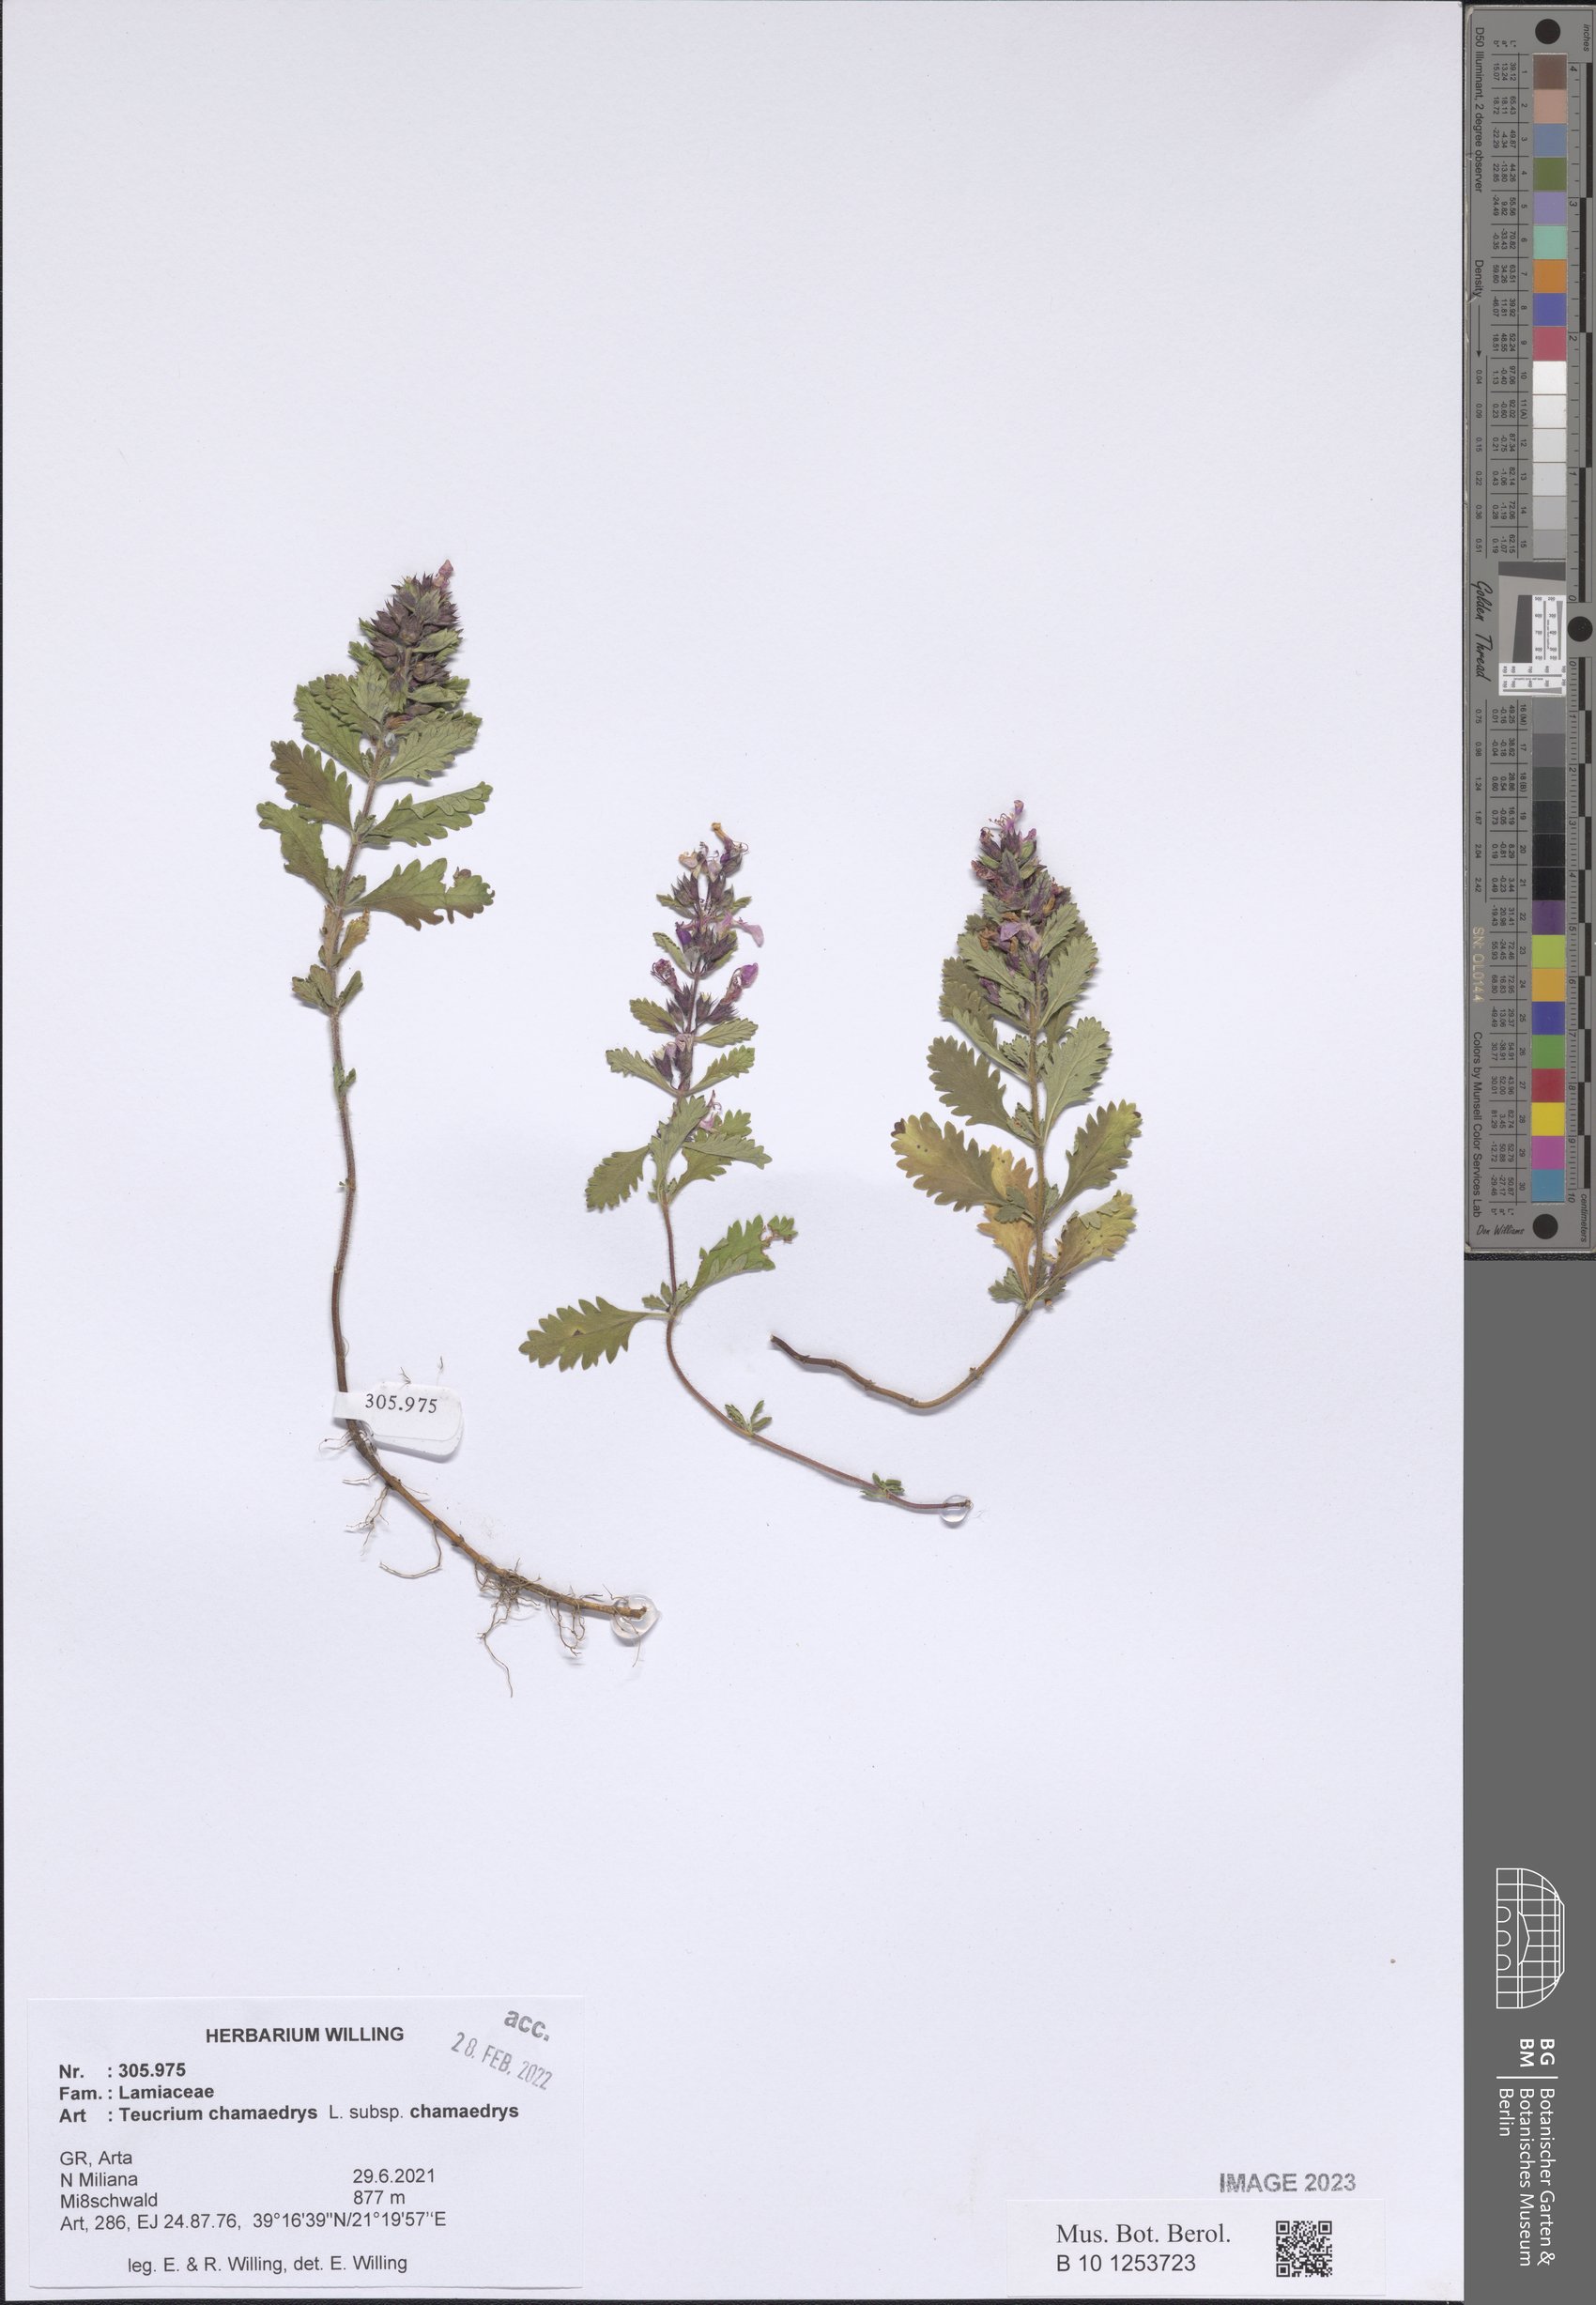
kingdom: Plantae
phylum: Tracheophyta
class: Magnoliopsida
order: Lamiales
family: Lamiaceae
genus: Teucrium
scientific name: Teucrium chamaedrys
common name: Wall germander
